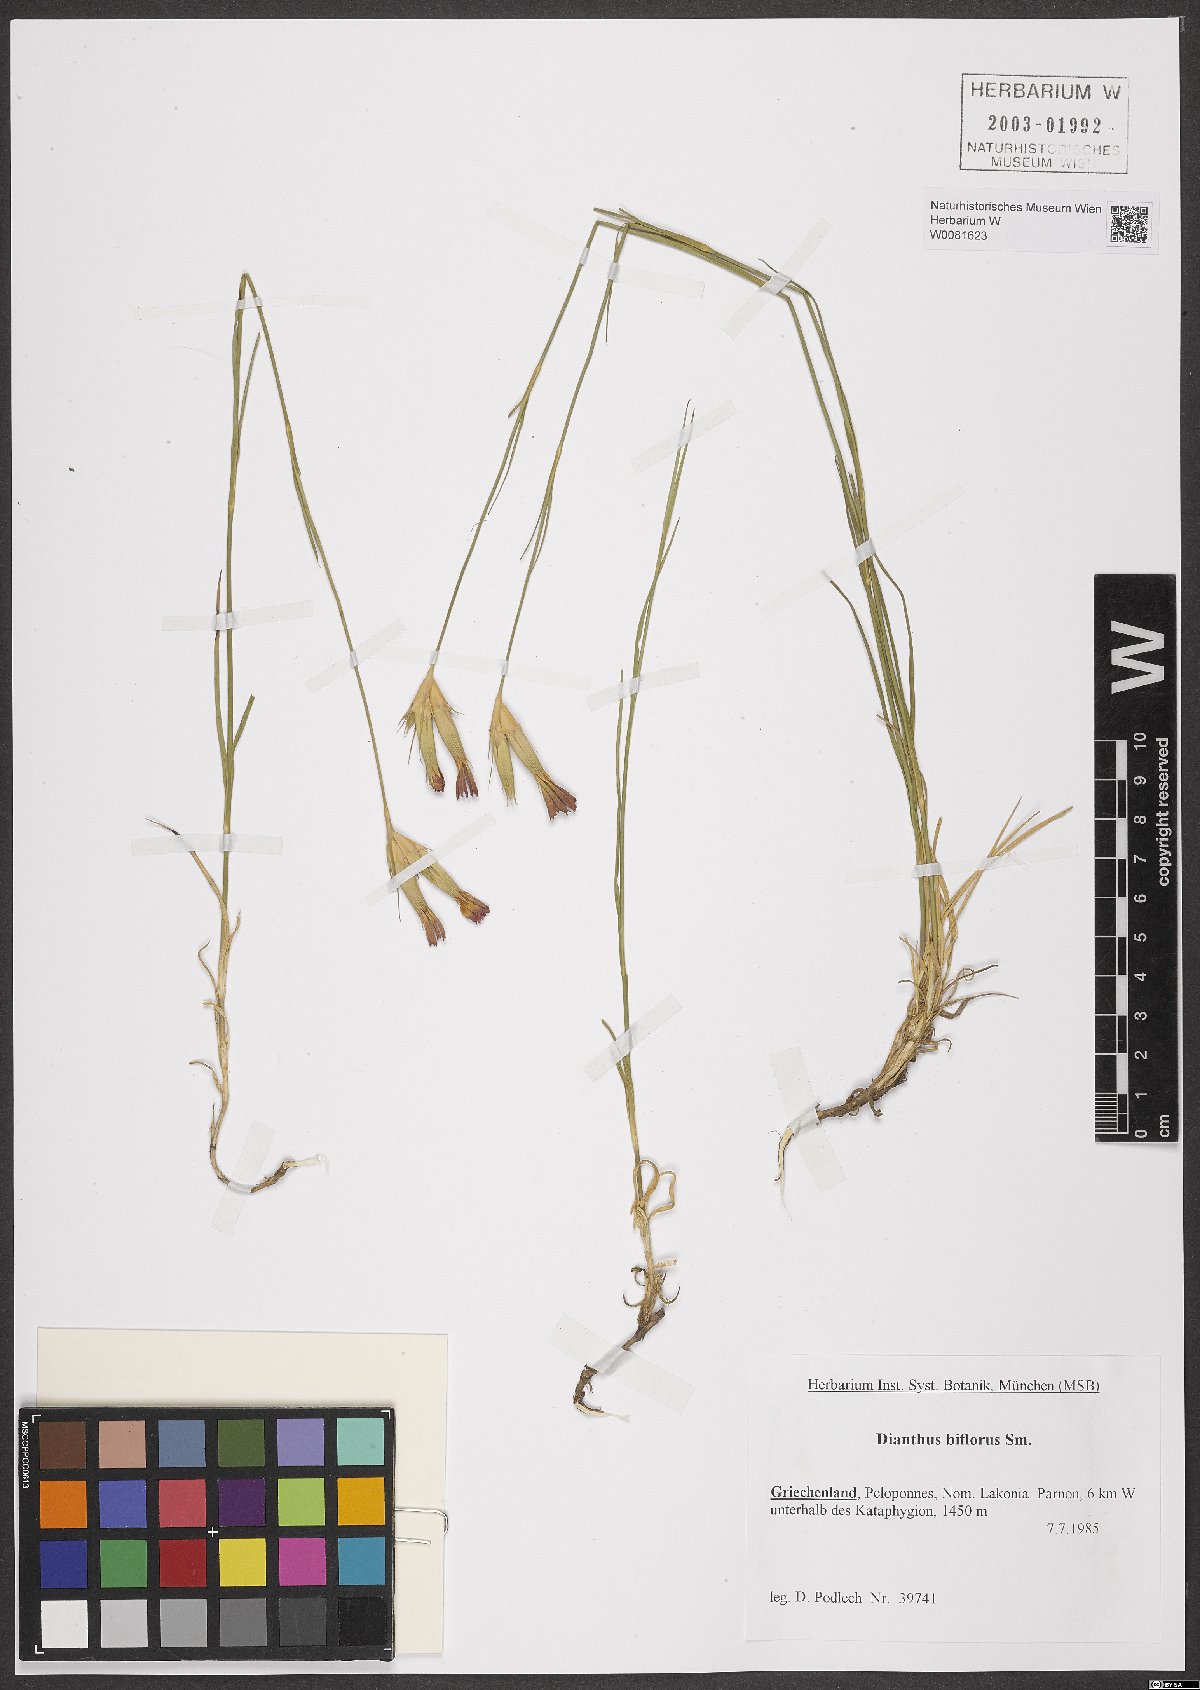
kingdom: Plantae
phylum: Tracheophyta
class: Magnoliopsida
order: Caryophyllales
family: Caryophyllaceae
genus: Dianthus
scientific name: Dianthus biflorus
